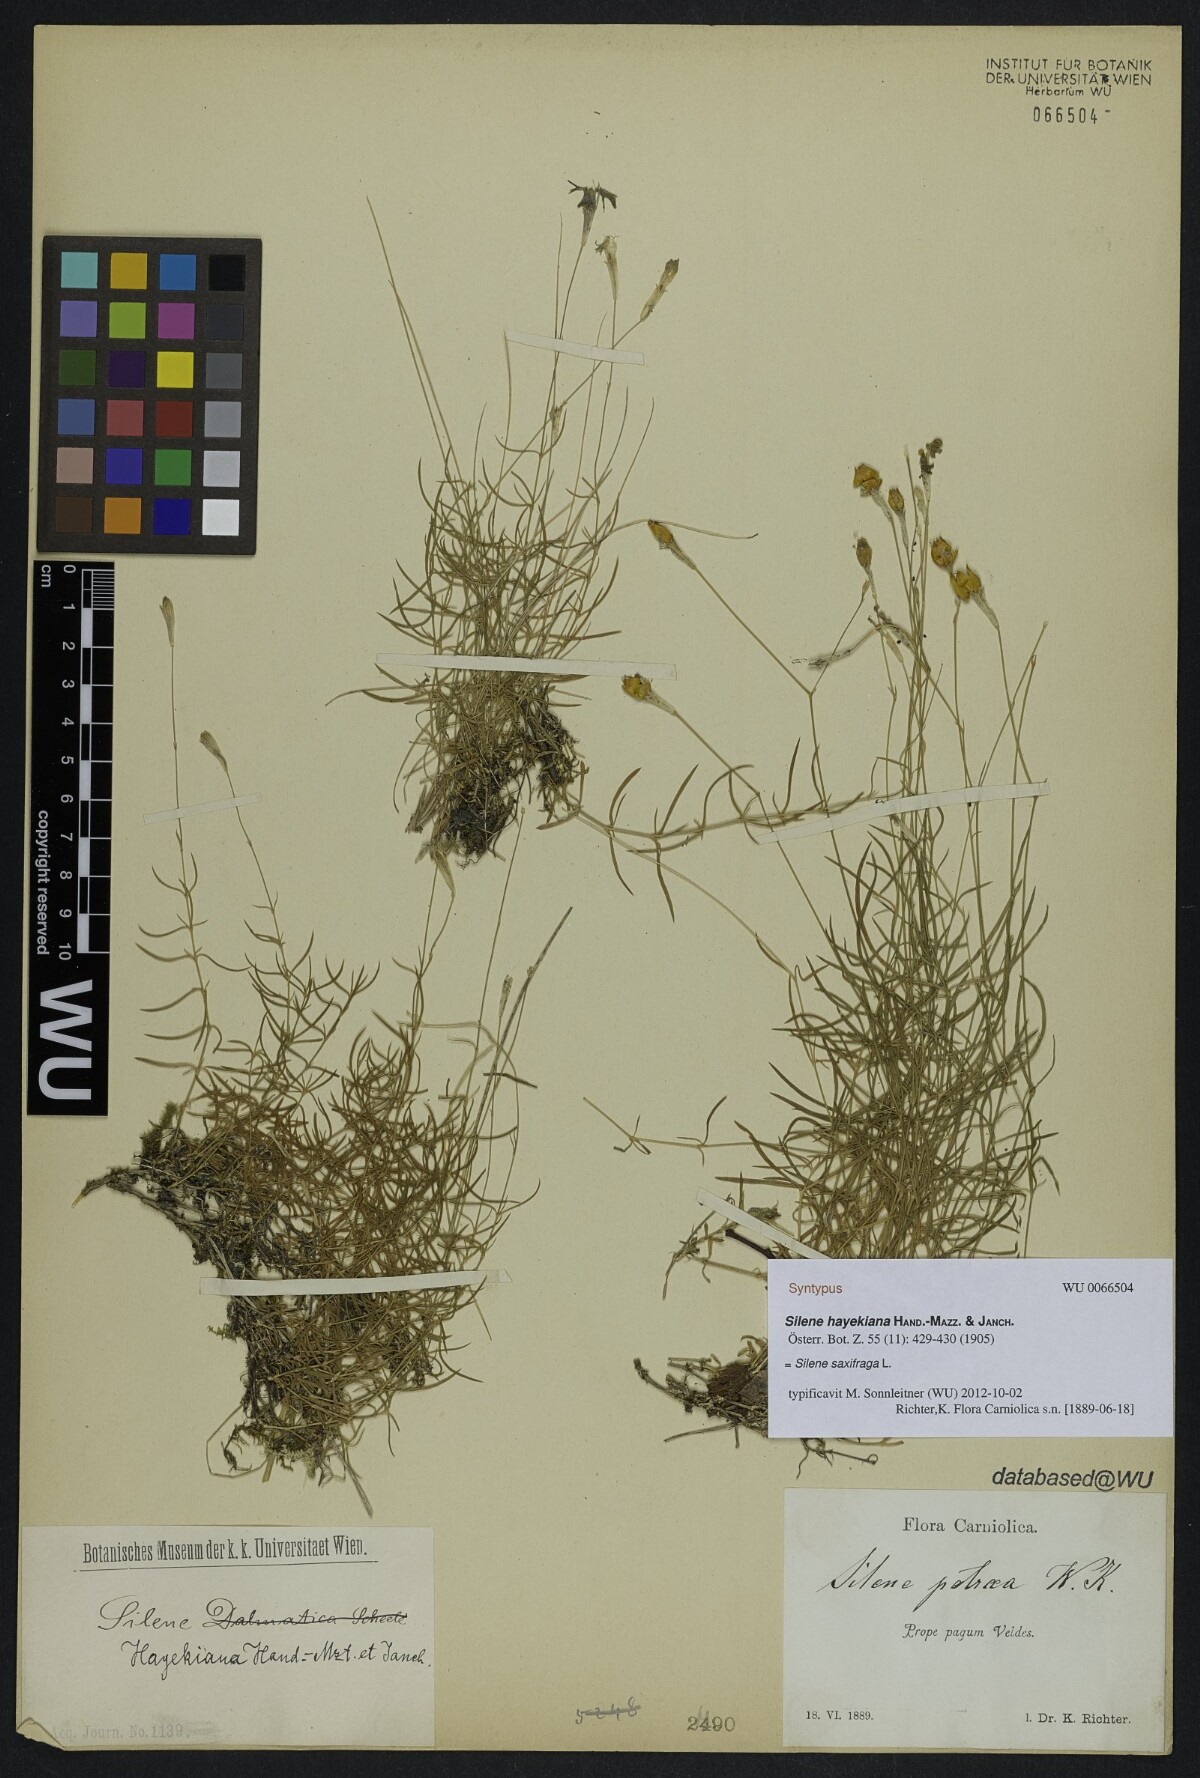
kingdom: Plantae
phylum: Tracheophyta
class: Magnoliopsida
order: Caryophyllales
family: Caryophyllaceae
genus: Silene
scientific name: Silene hayekiana
